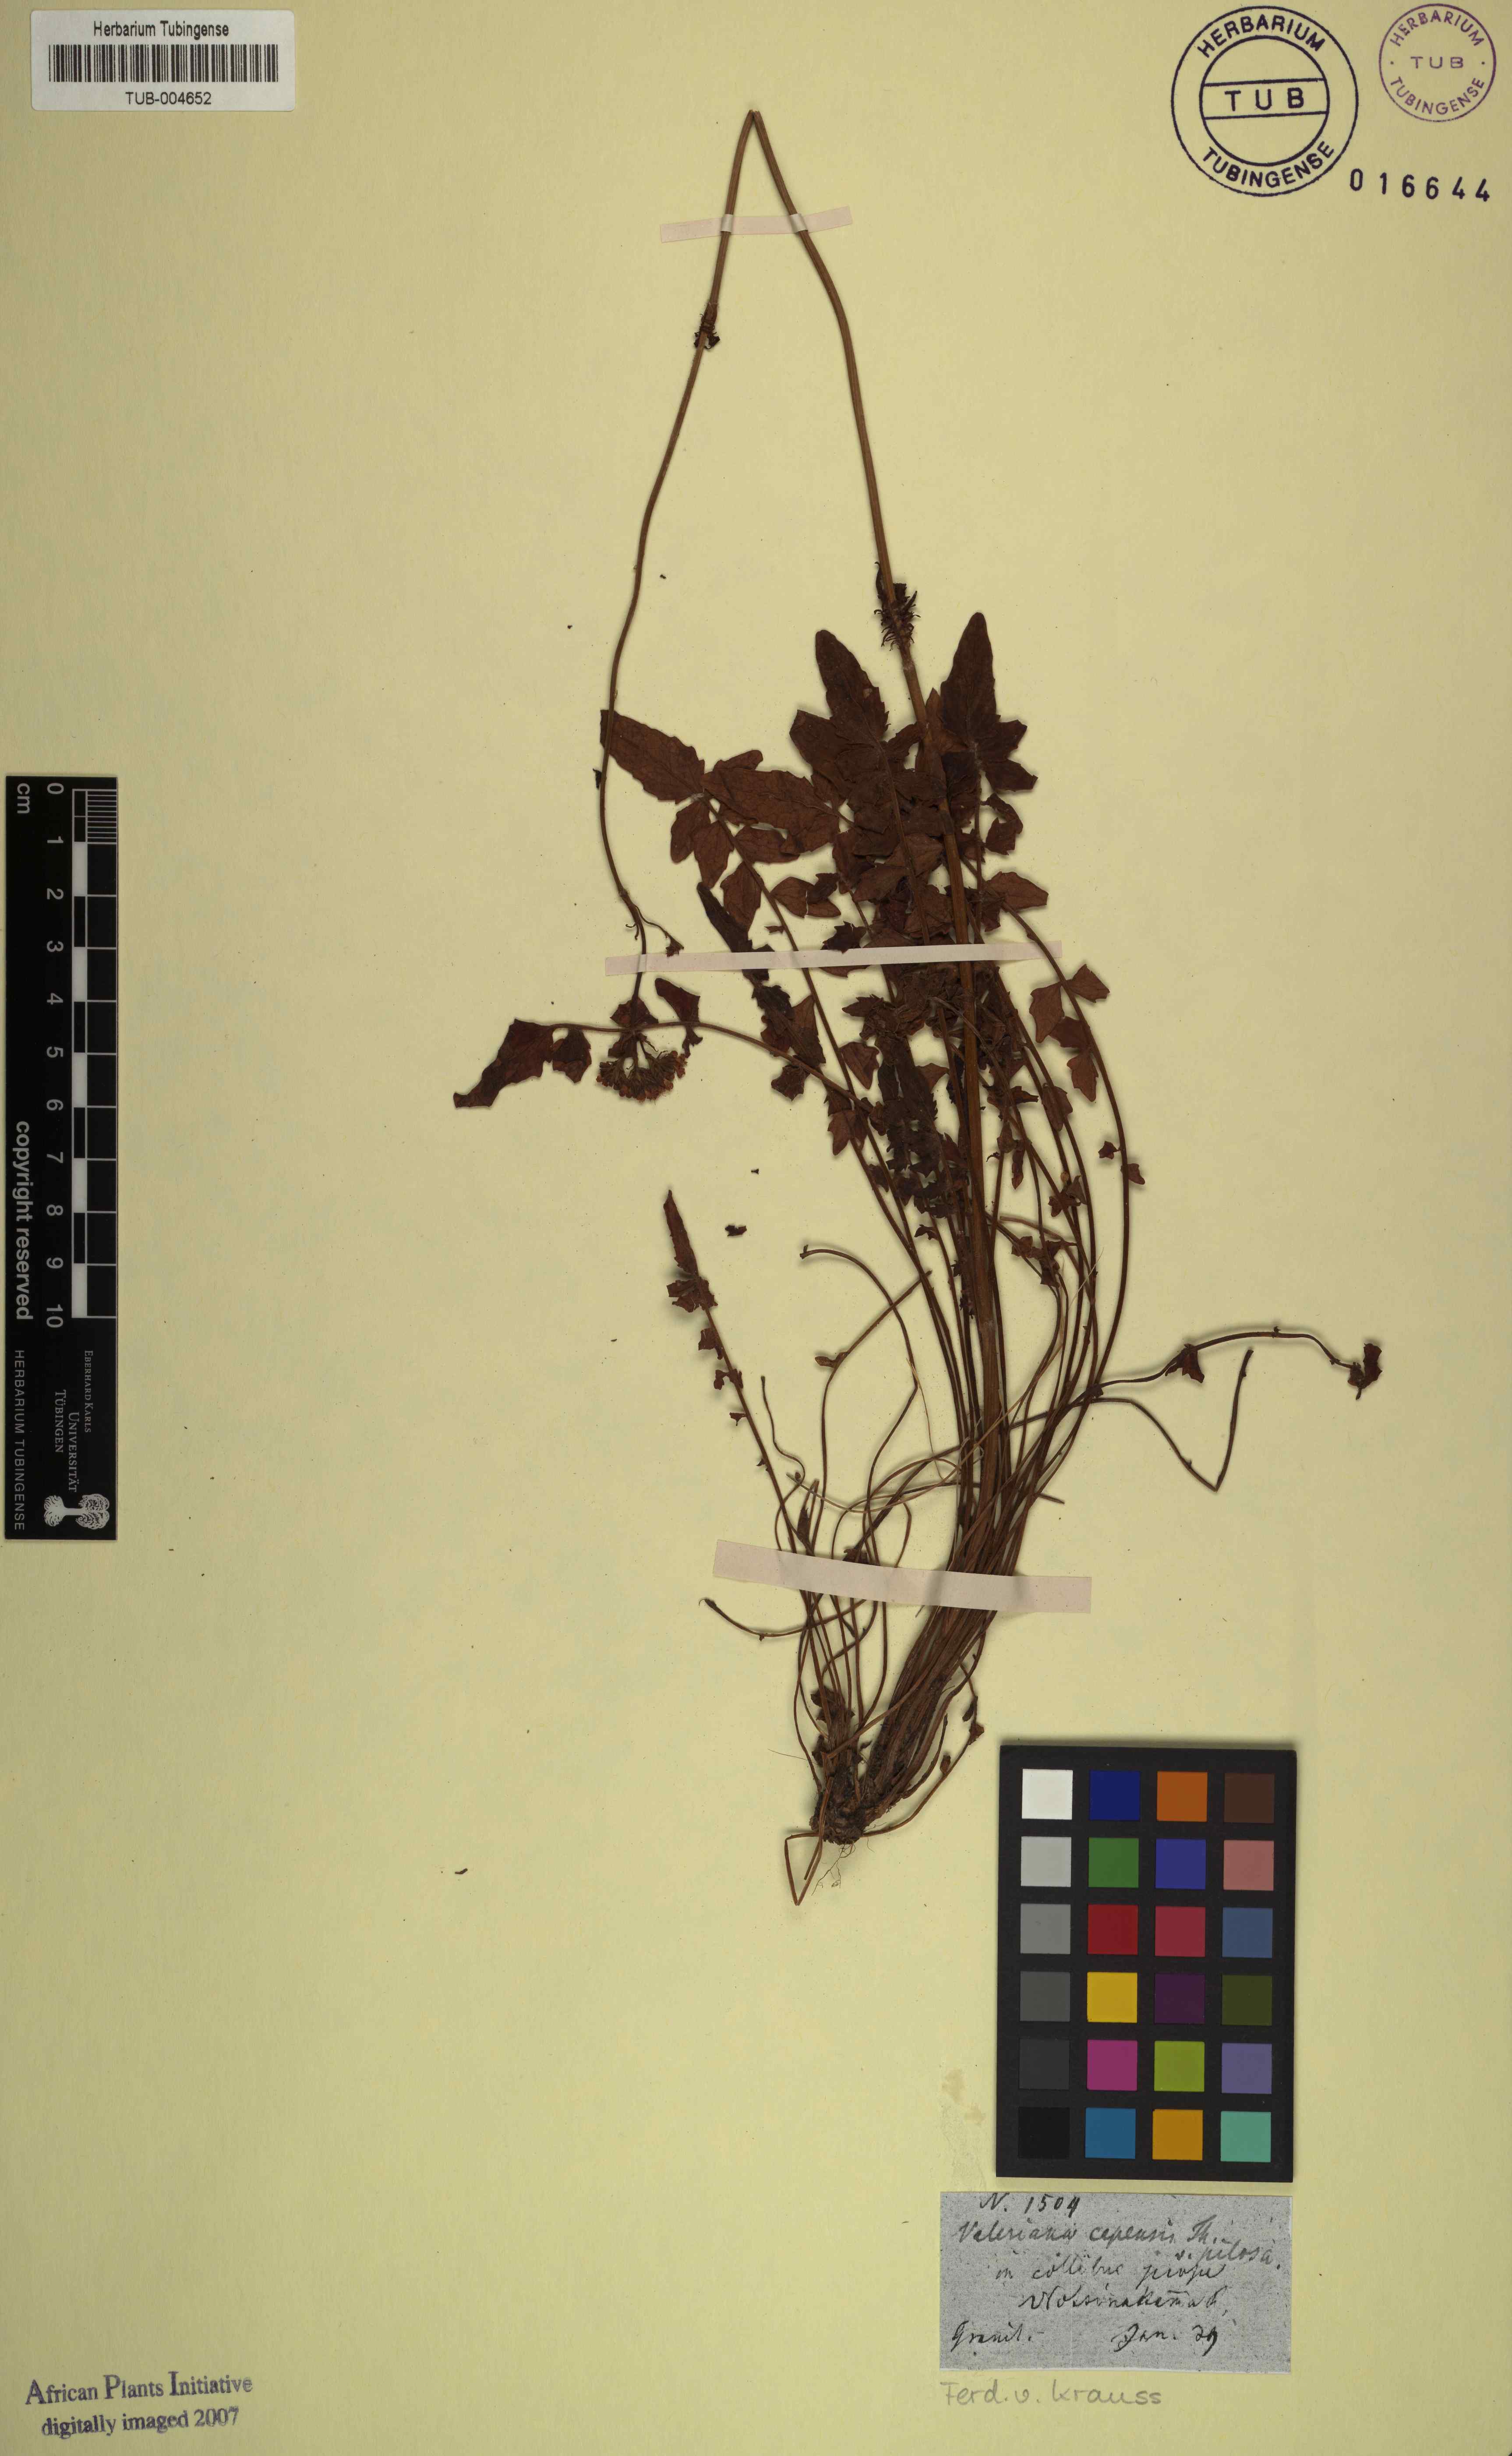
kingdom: Plantae
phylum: Tracheophyta
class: Magnoliopsida
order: Dipsacales
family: Caprifoliaceae
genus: Valeriana
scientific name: Valeriana capensis
